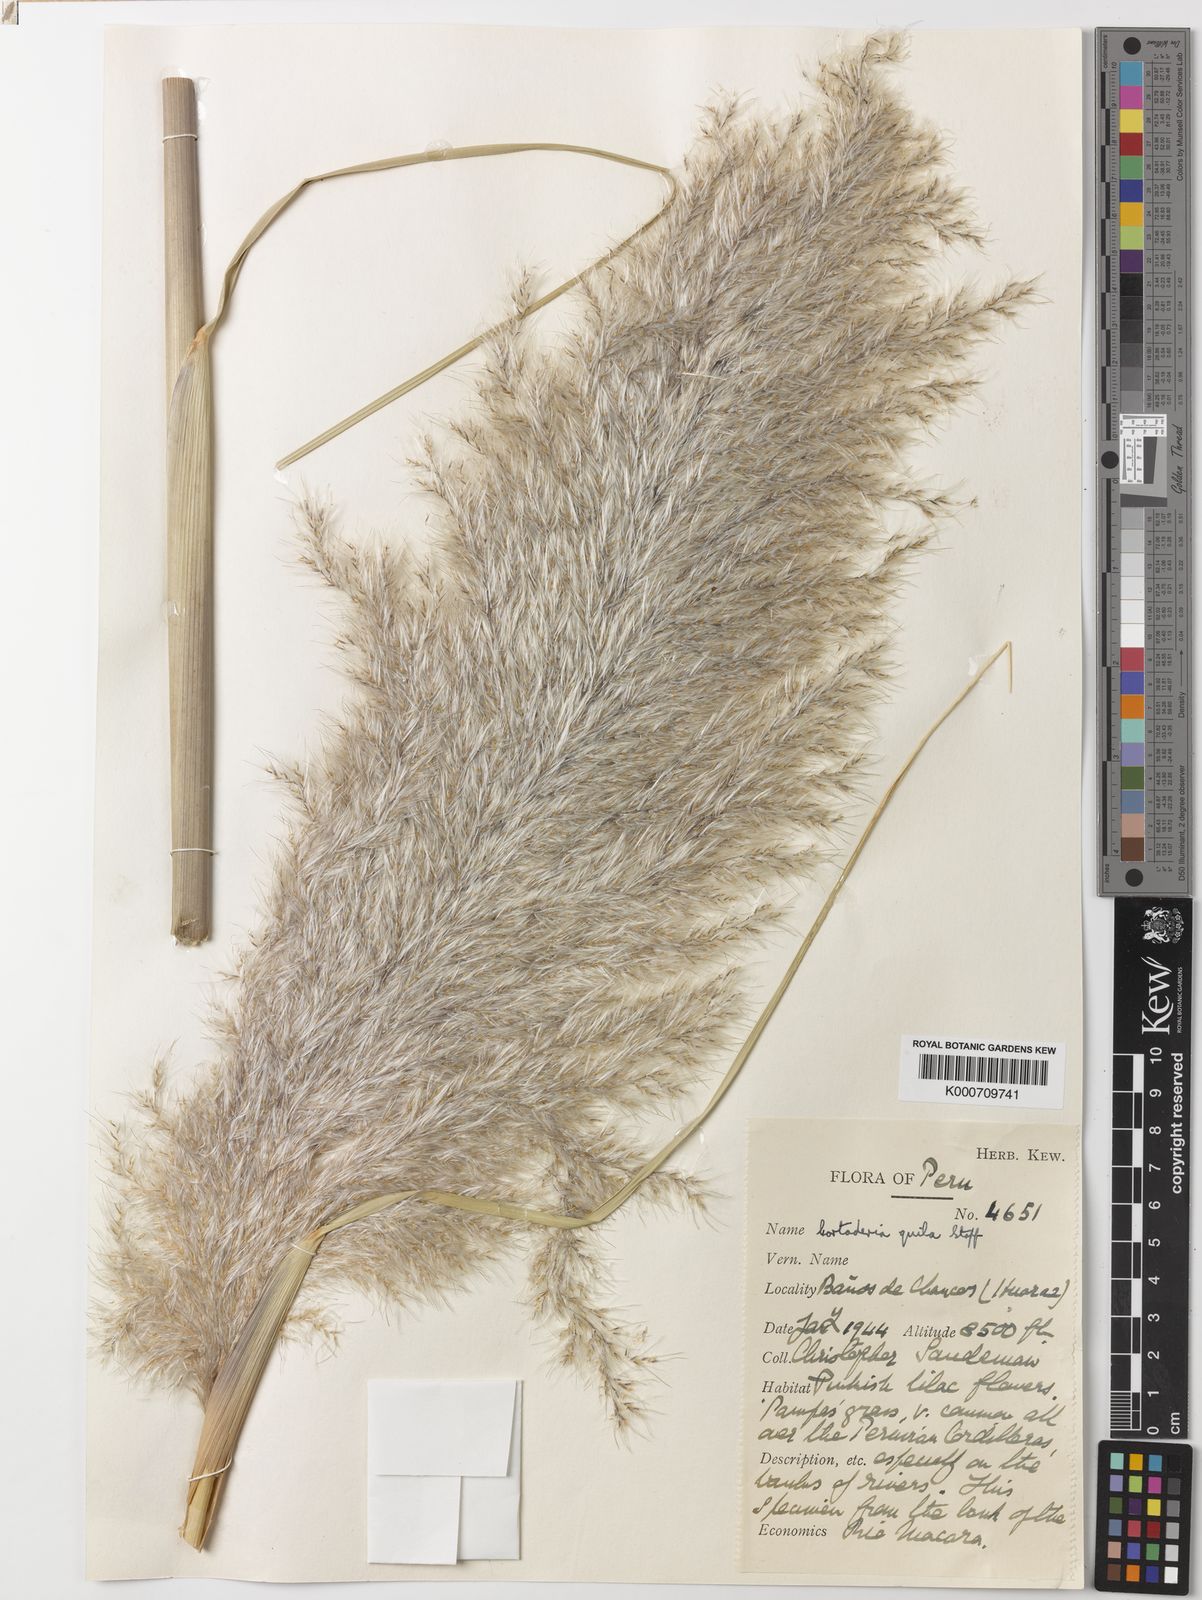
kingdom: Plantae
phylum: Tracheophyta
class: Liliopsida
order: Poales
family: Poaceae
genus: Cortaderia
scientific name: Cortaderia jubata
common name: Purple pampas grass
